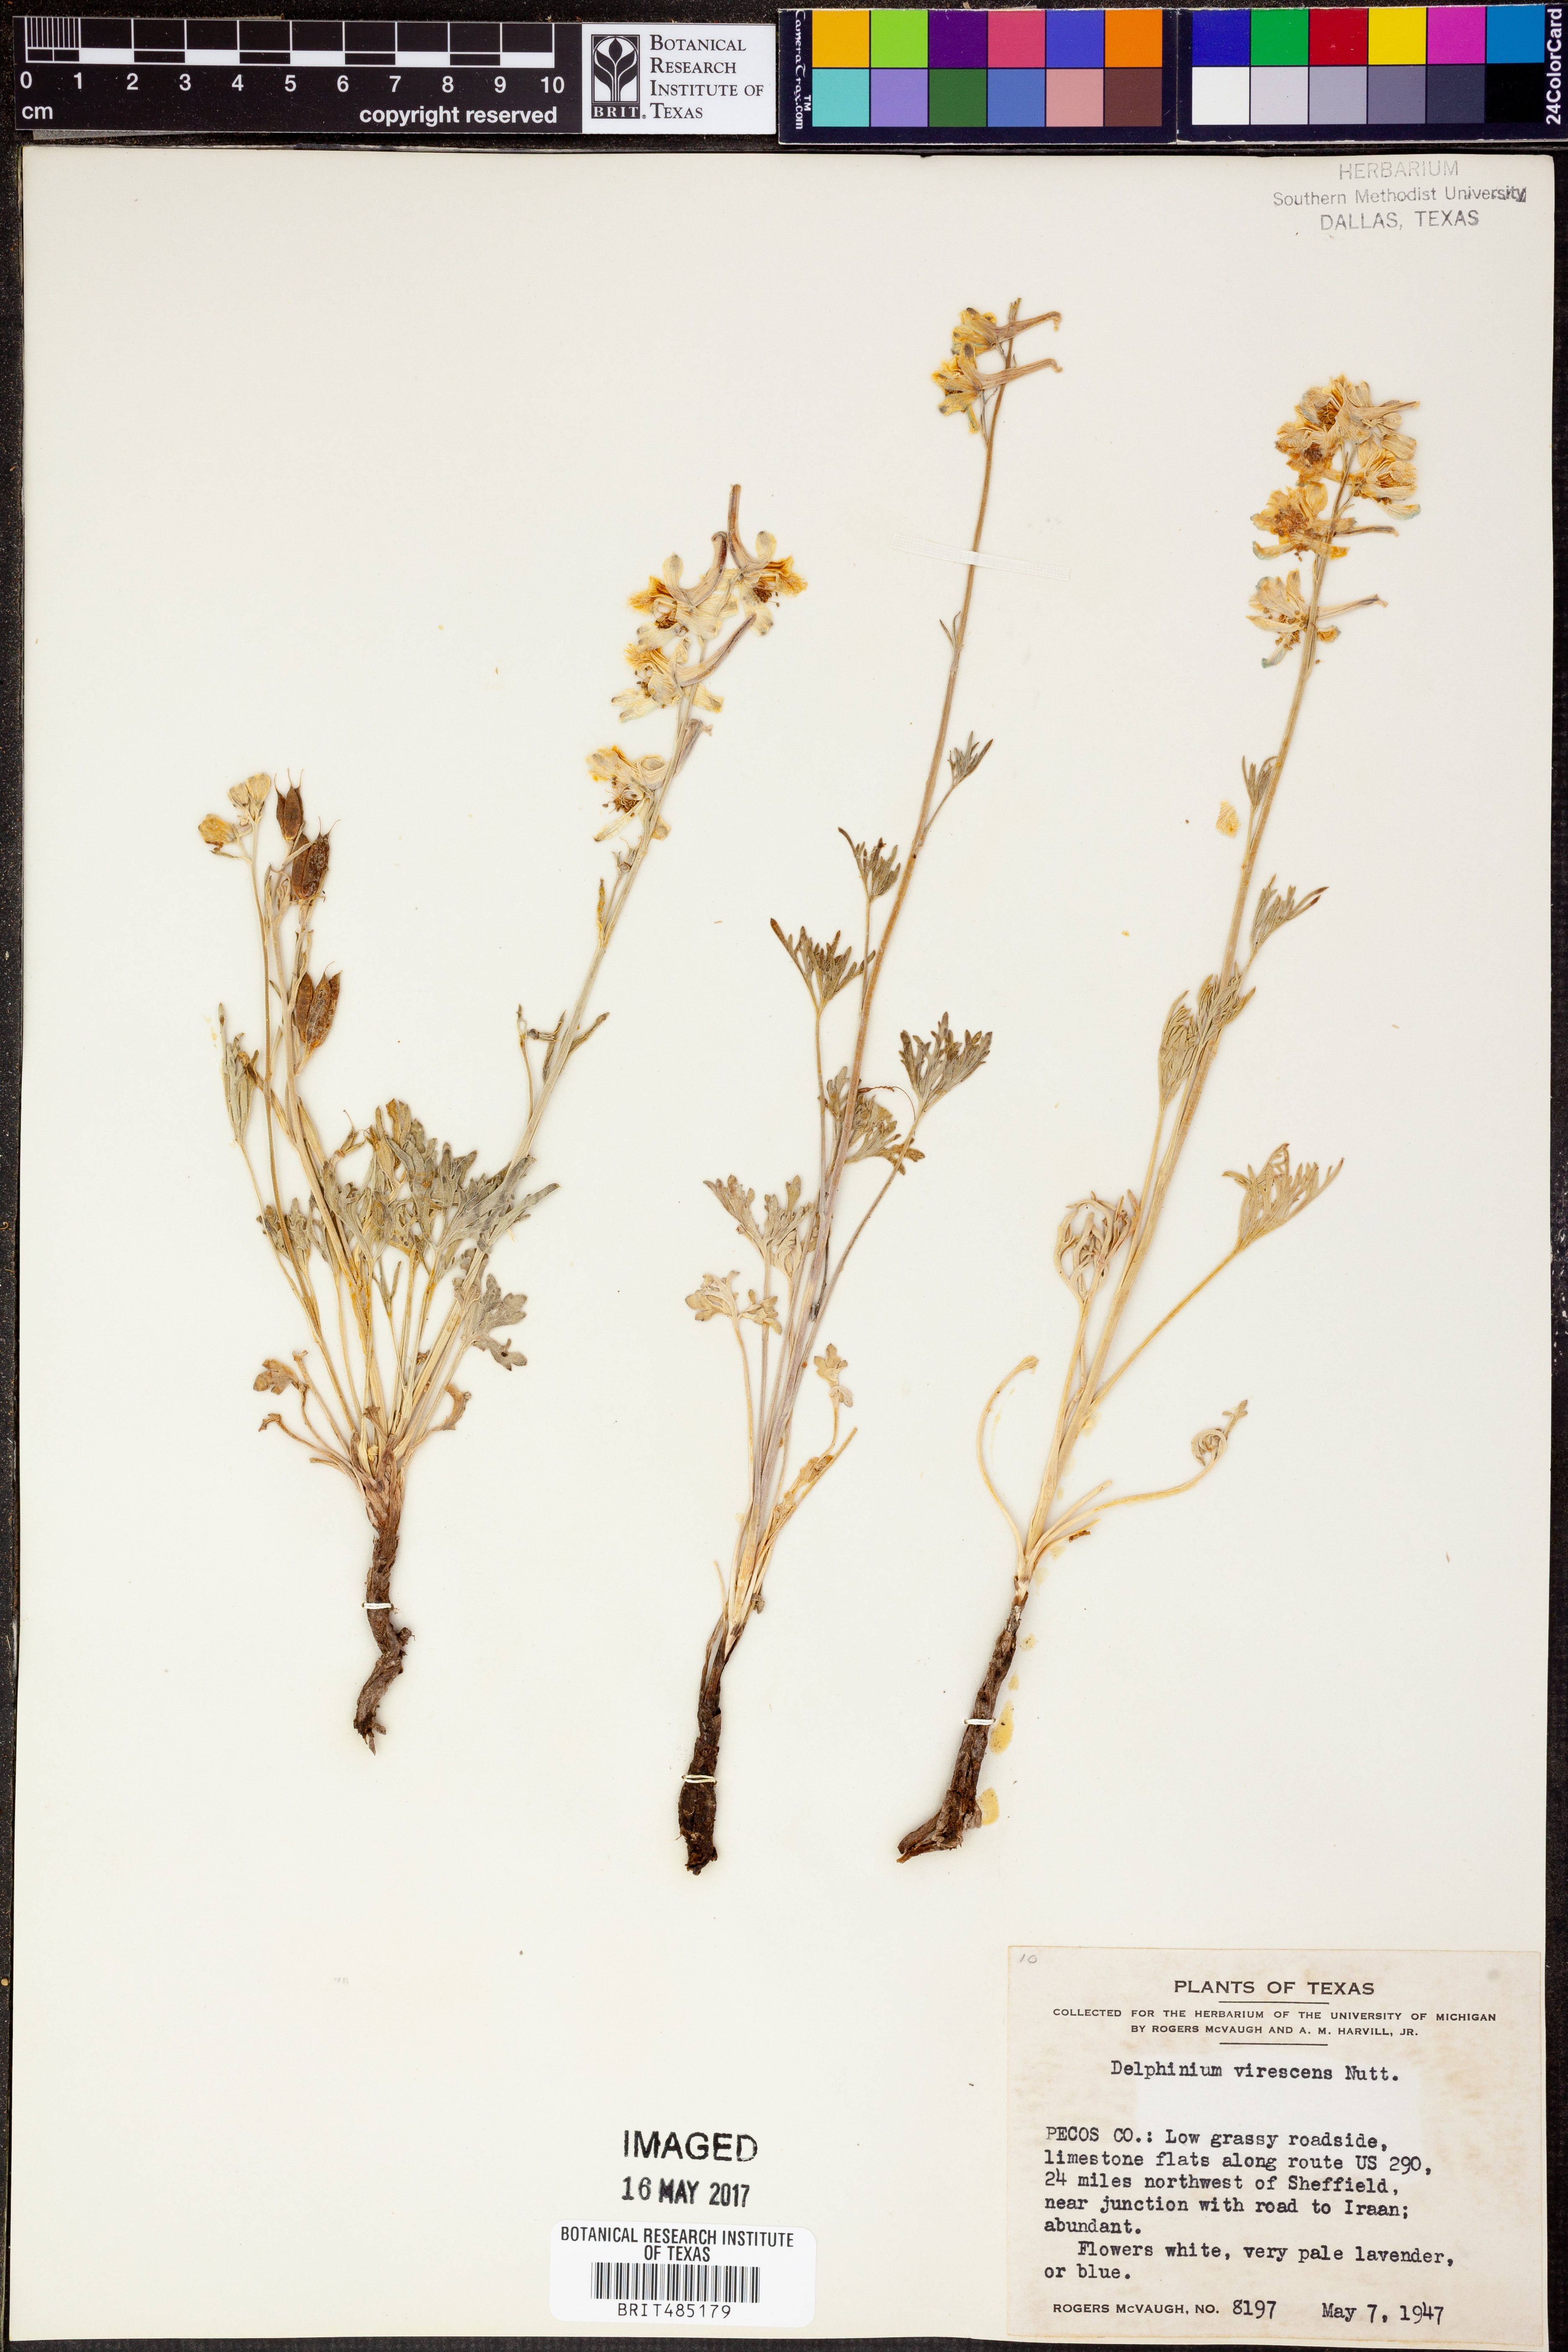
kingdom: Plantae
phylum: Tracheophyta
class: Magnoliopsida
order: Ranunculales
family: Ranunculaceae
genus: Delphinium
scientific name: Delphinium carolinianum
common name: Carolina larkspur
